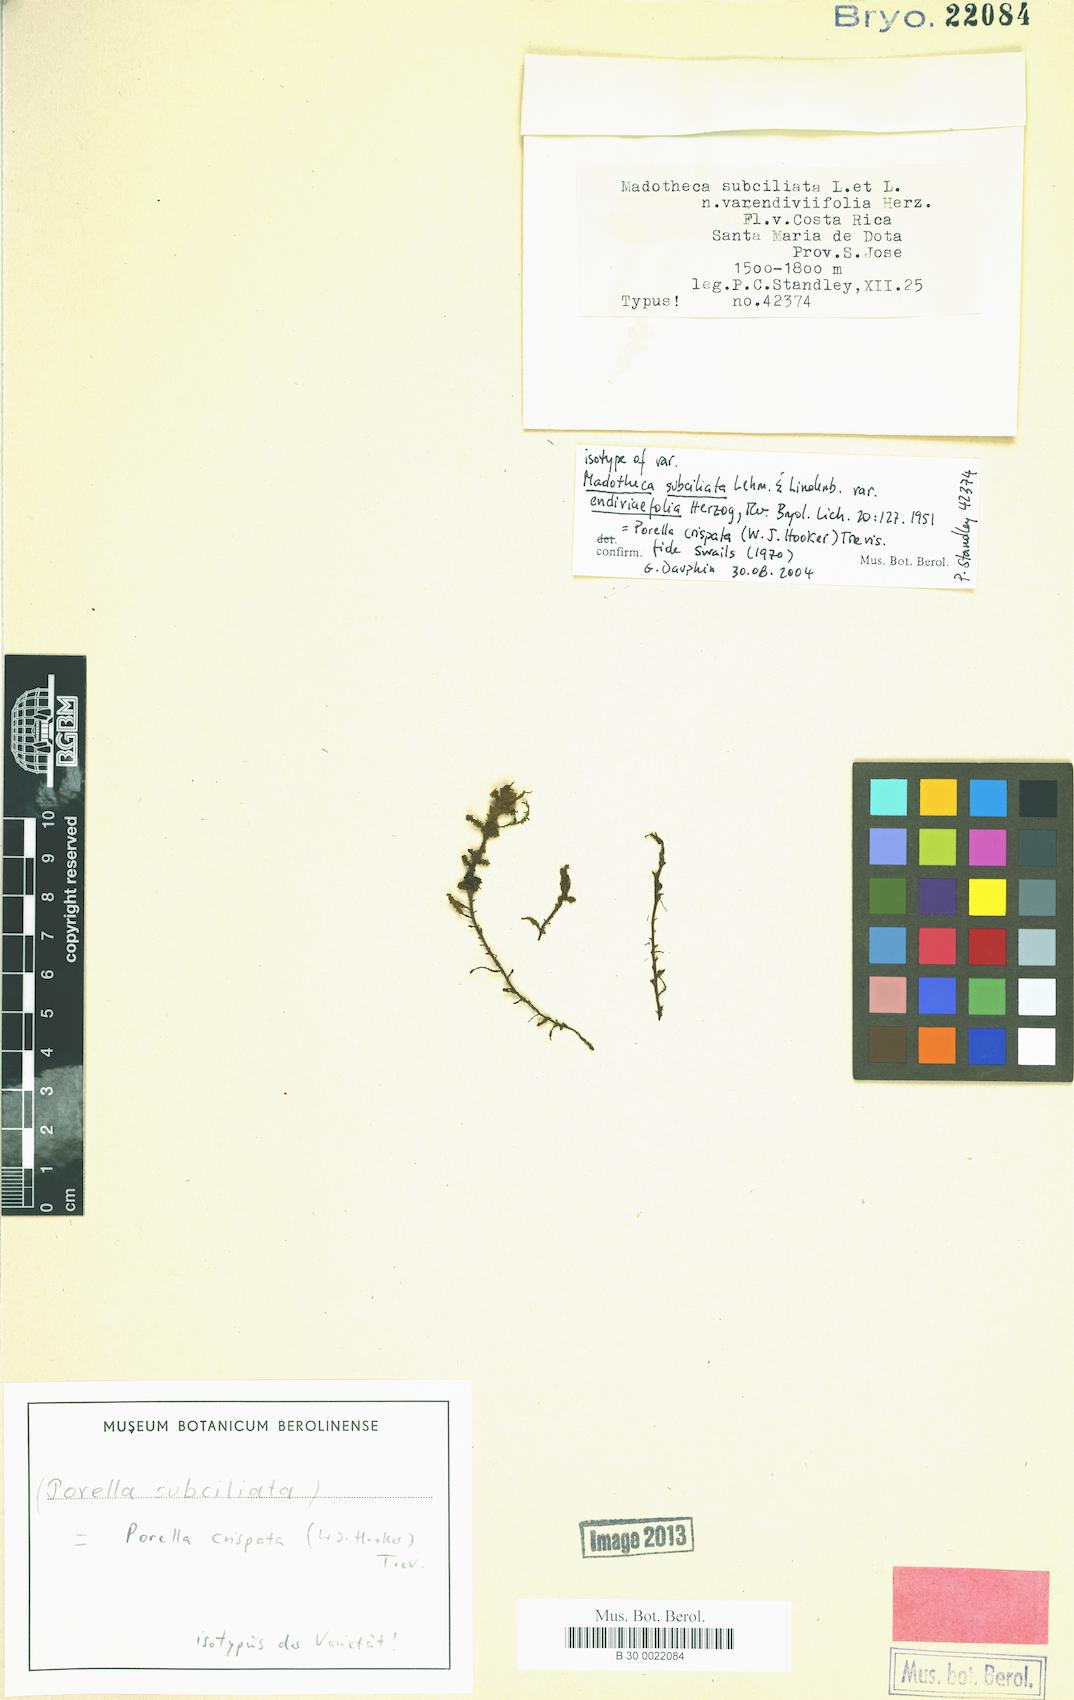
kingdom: Plantae
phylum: Marchantiophyta
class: Jungermanniopsida
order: Porellales
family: Porellaceae
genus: Porella
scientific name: Porella crispata
